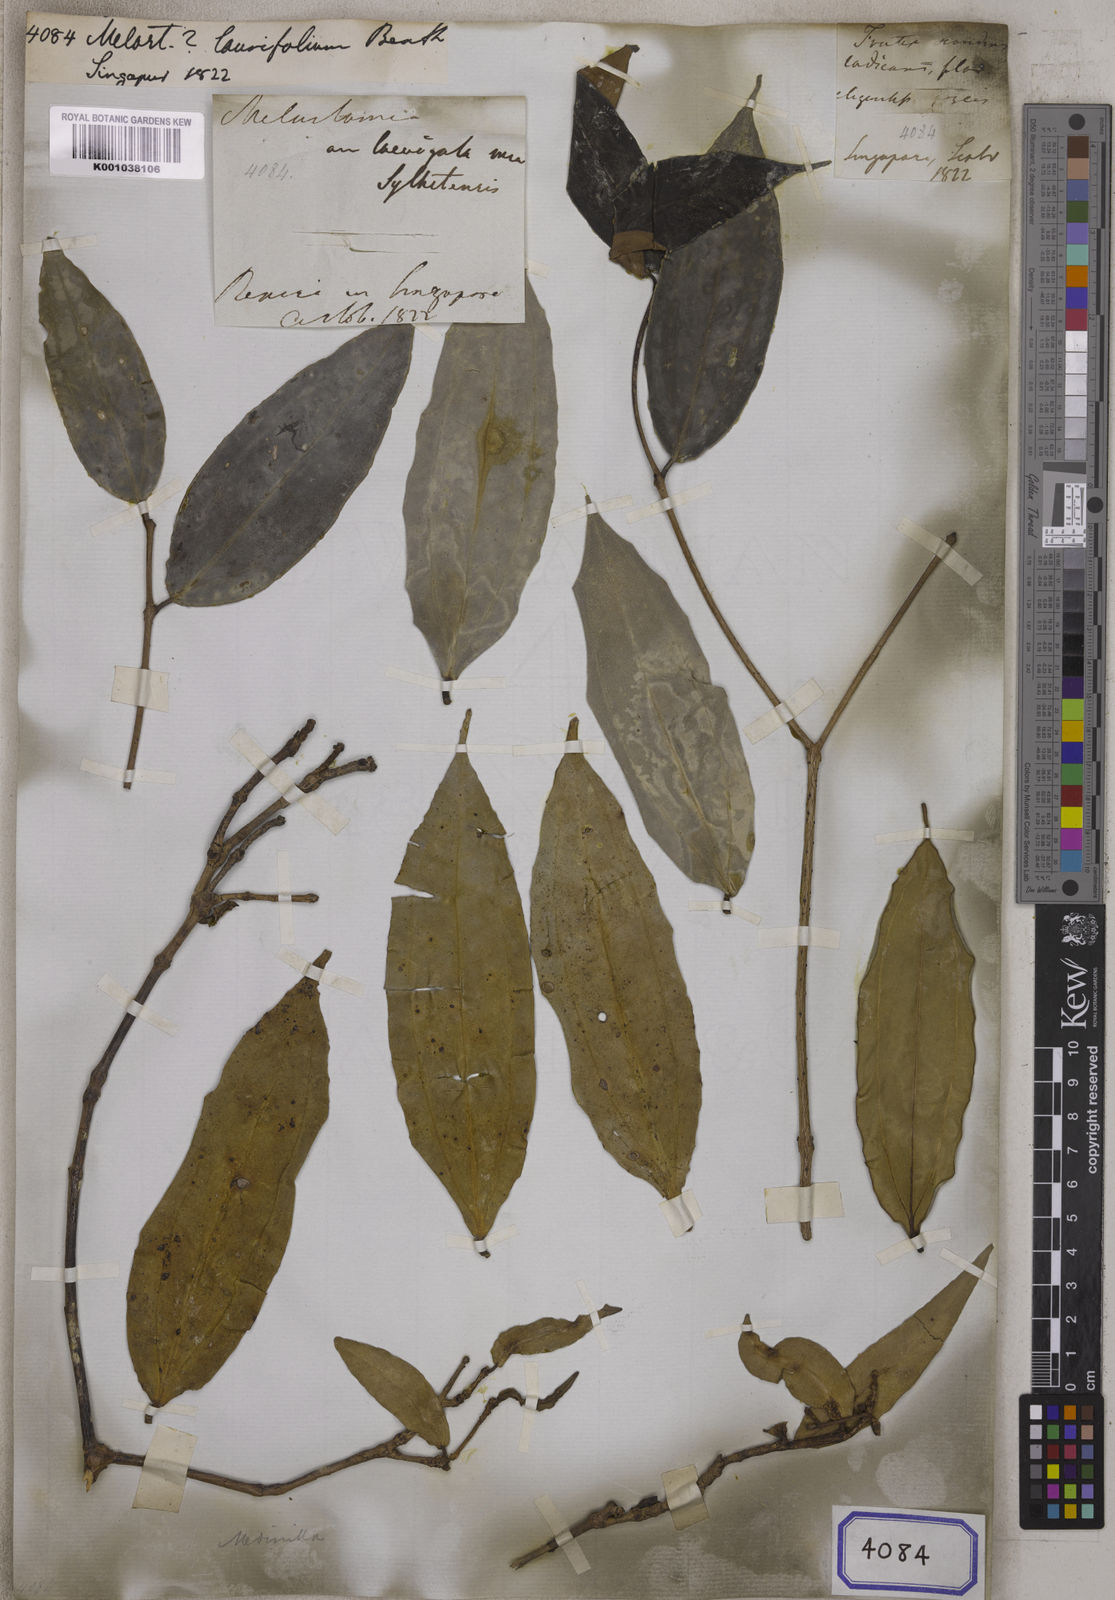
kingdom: Plantae
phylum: Tracheophyta
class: Magnoliopsida
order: Myrtales
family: Melastomataceae
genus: Medinilla
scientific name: Medinilla crassifolia
